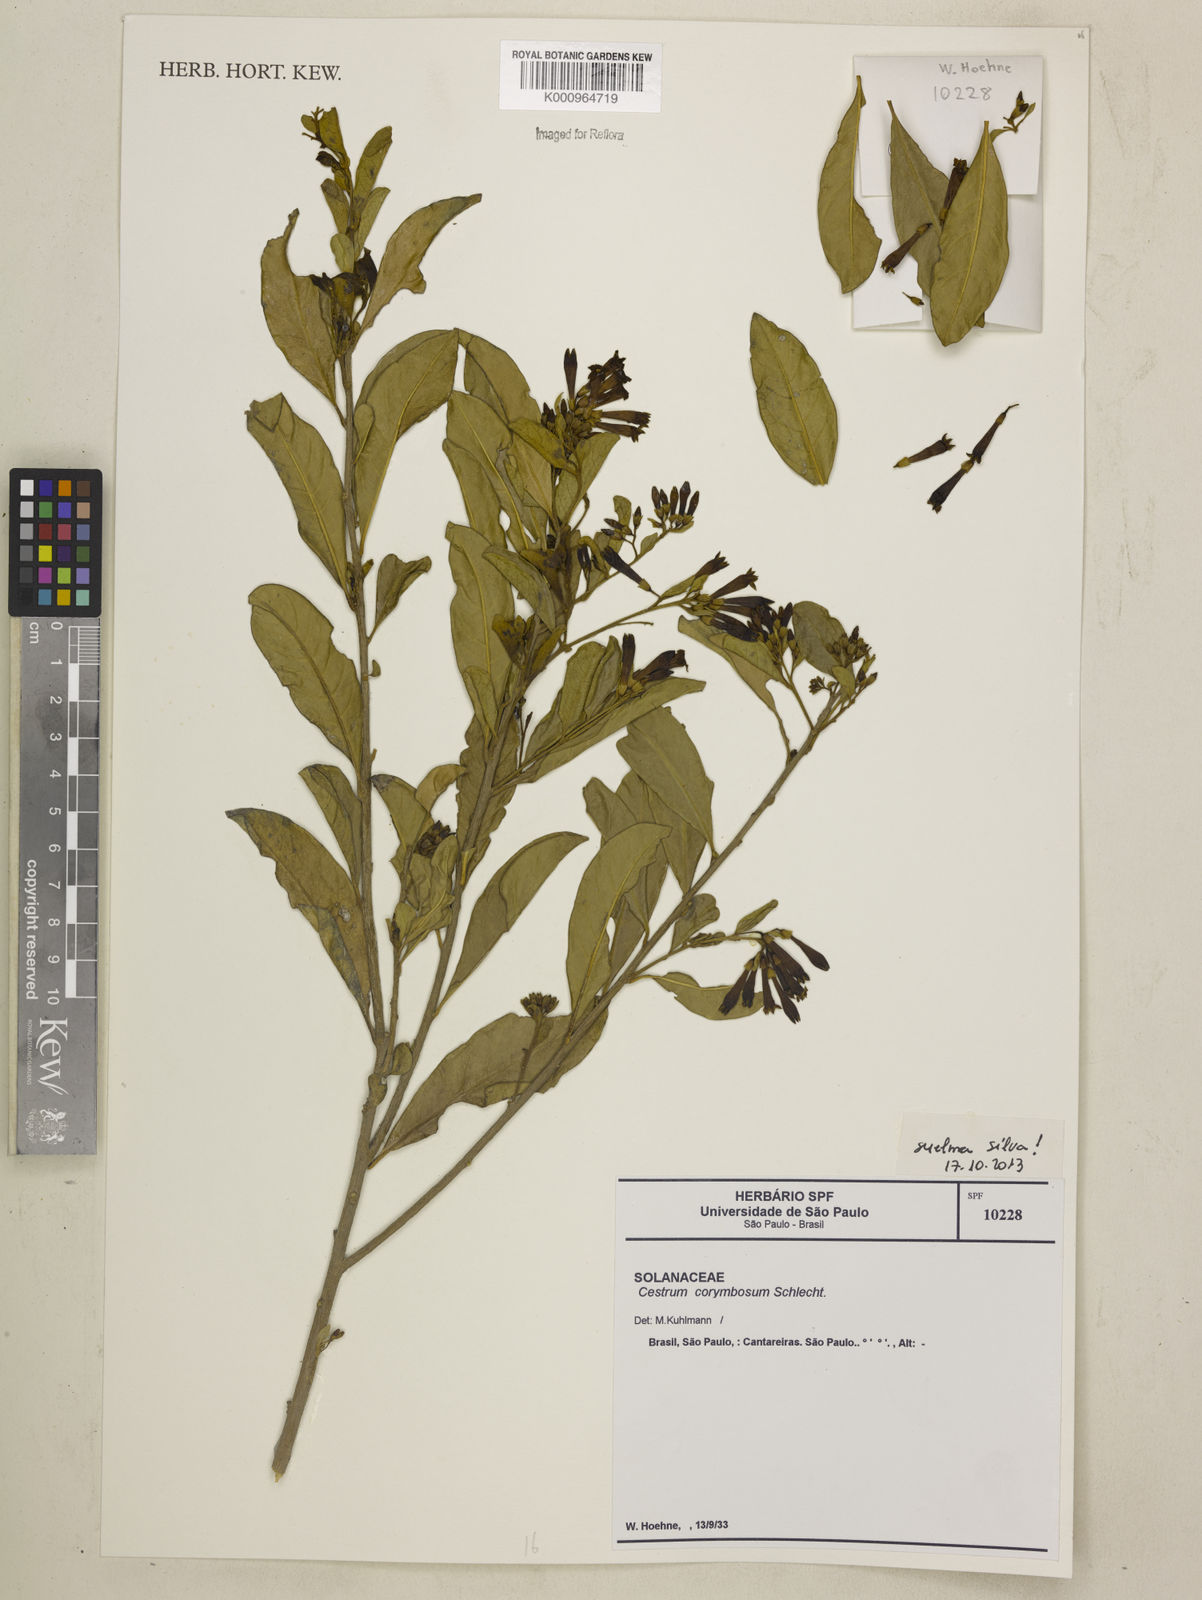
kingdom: Plantae
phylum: Tracheophyta
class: Magnoliopsida
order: Solanales
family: Solanaceae
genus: Cestrum
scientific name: Cestrum corymbosum
